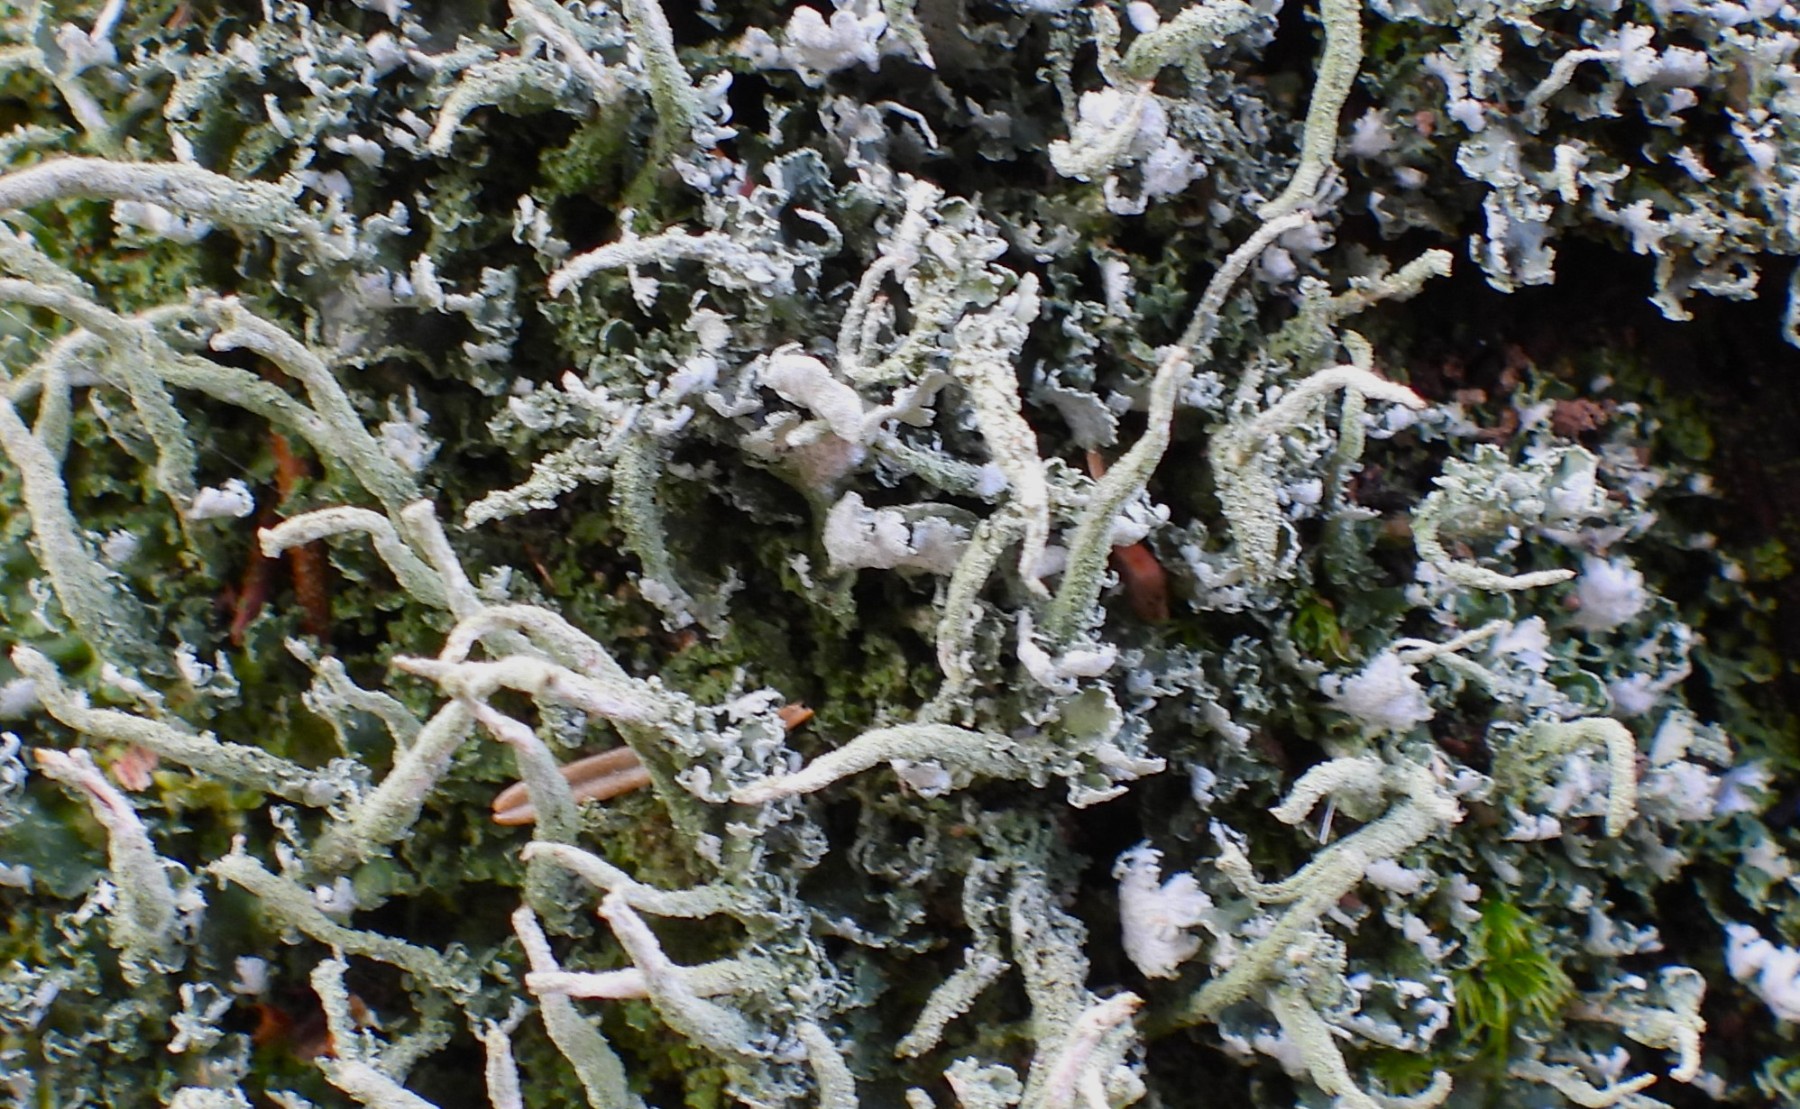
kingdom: Fungi
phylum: Ascomycota
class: Lecanoromycetes
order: Lecanorales
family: Cladoniaceae
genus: Cladonia
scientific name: Cladonia coniocraea
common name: træfods-bægerlav
